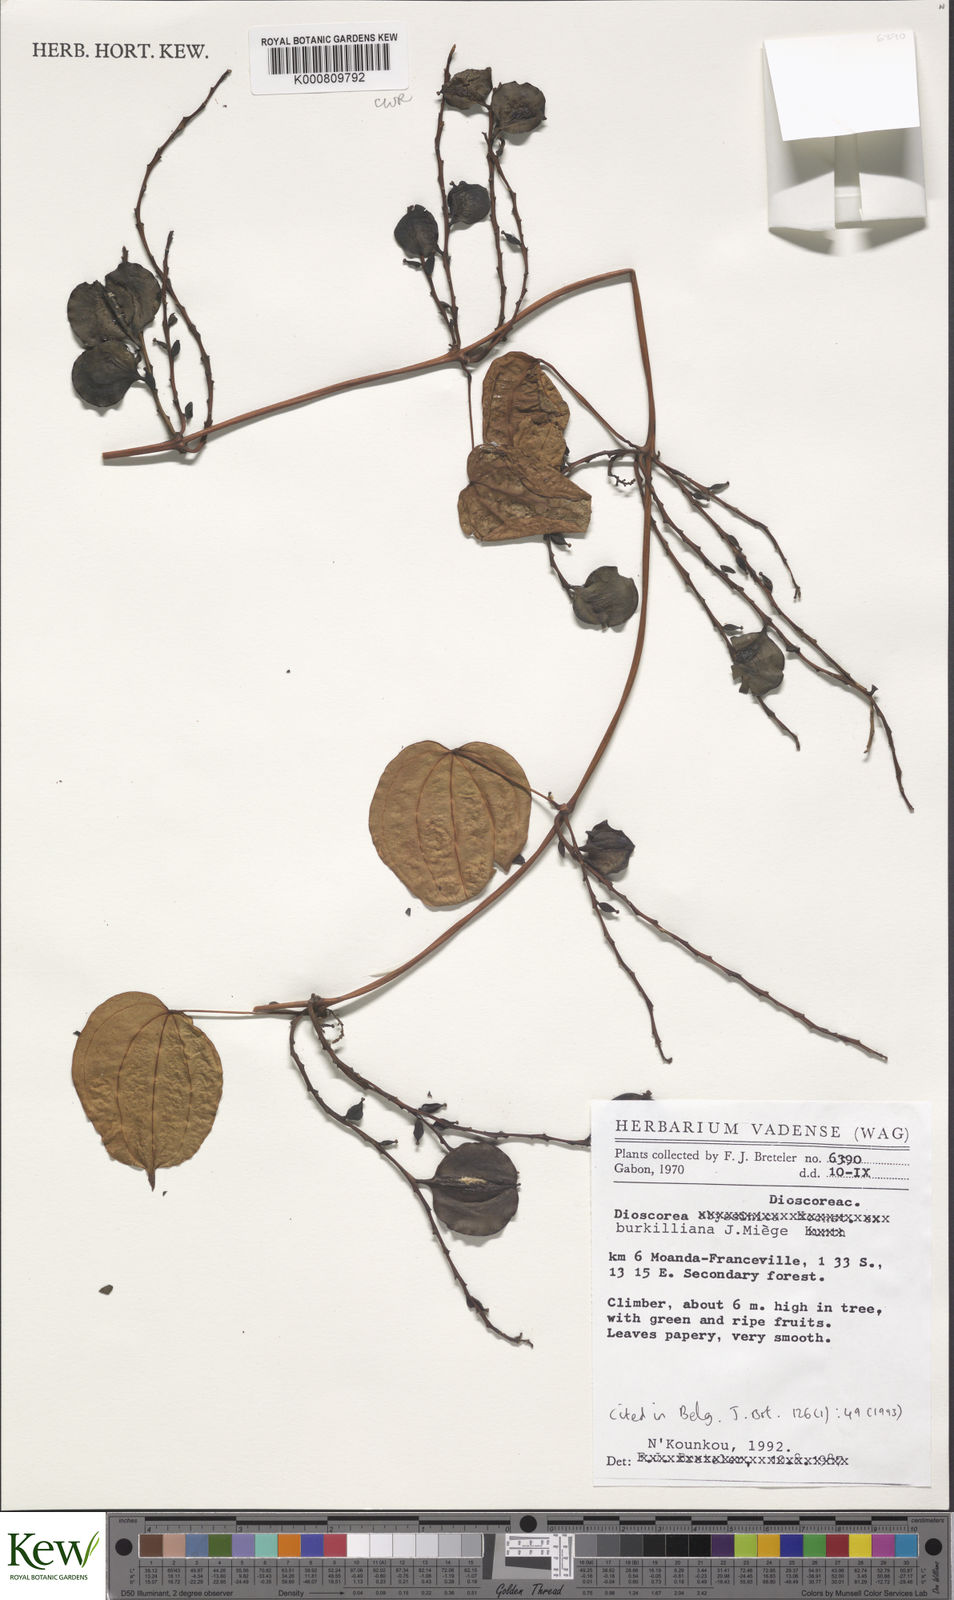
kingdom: Plantae
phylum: Tracheophyta
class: Liliopsida
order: Dioscoreales
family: Dioscoreaceae
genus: Dioscorea
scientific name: Dioscorea
